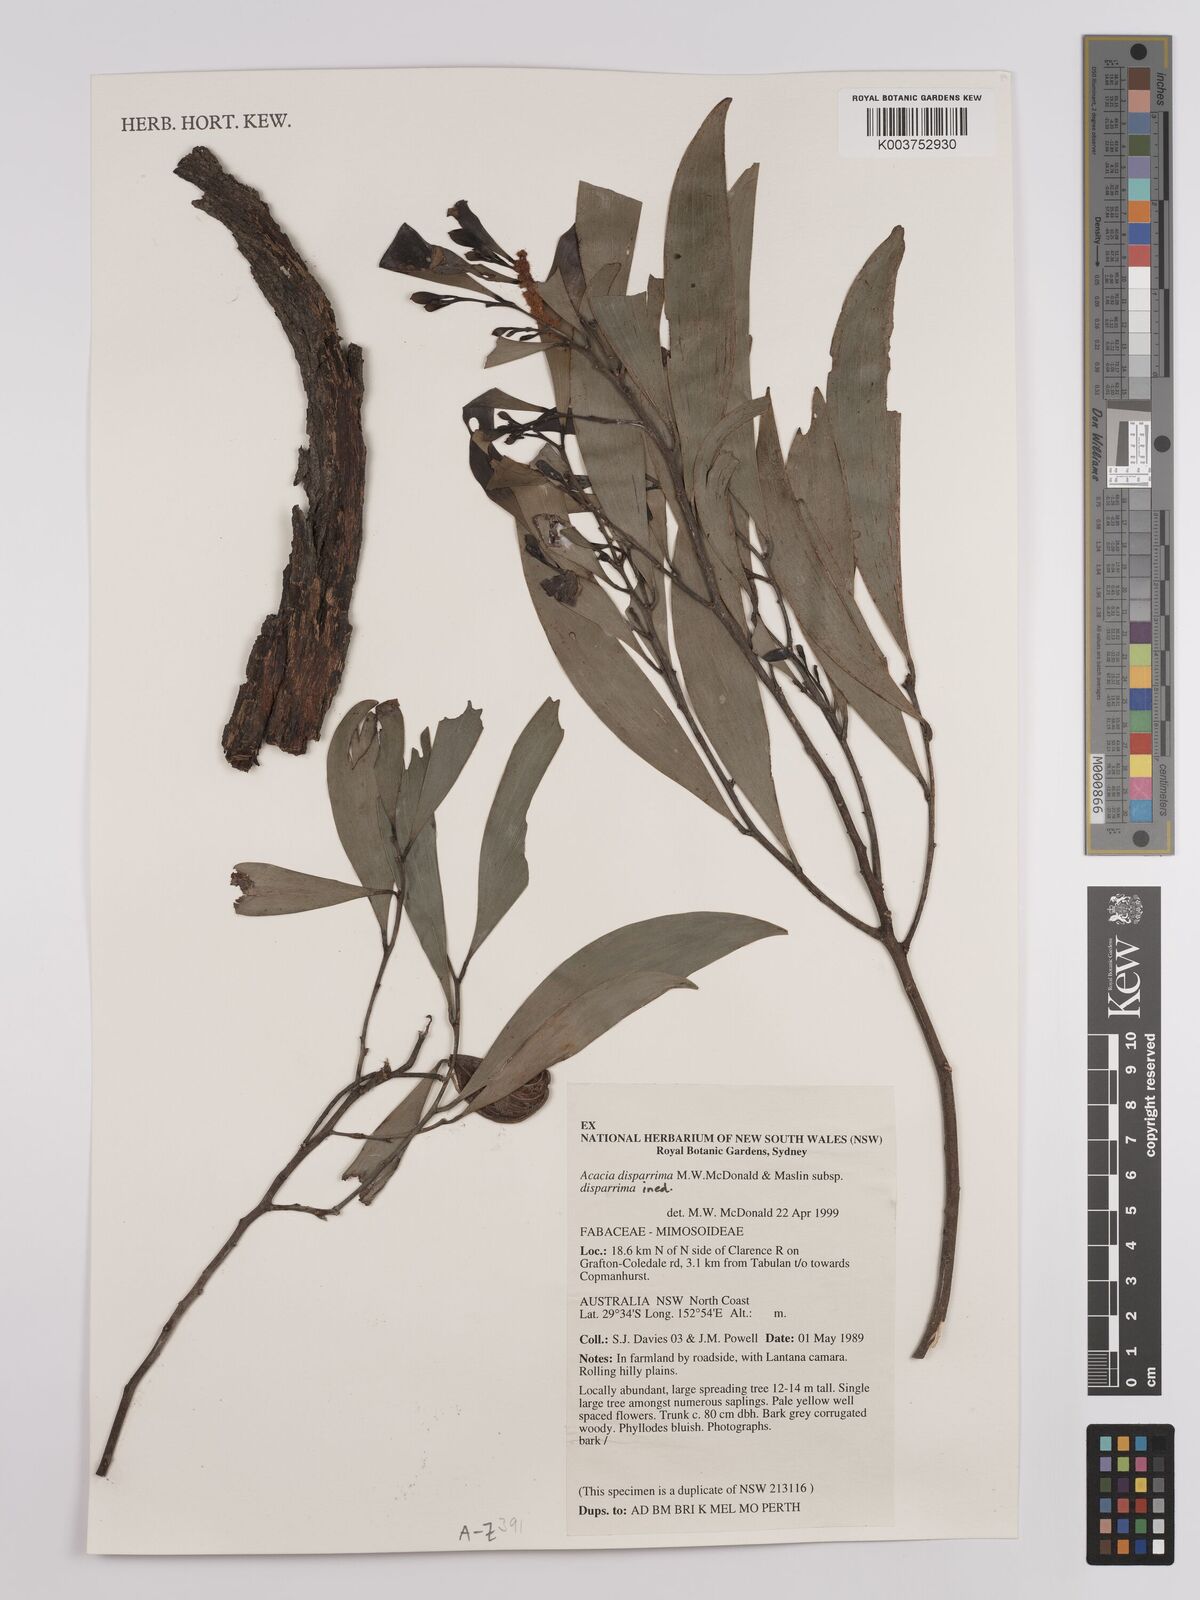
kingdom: Plantae
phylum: Tracheophyta
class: Magnoliopsida
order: Fabales
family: Fabaceae
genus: Acacia
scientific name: Acacia disparrima
